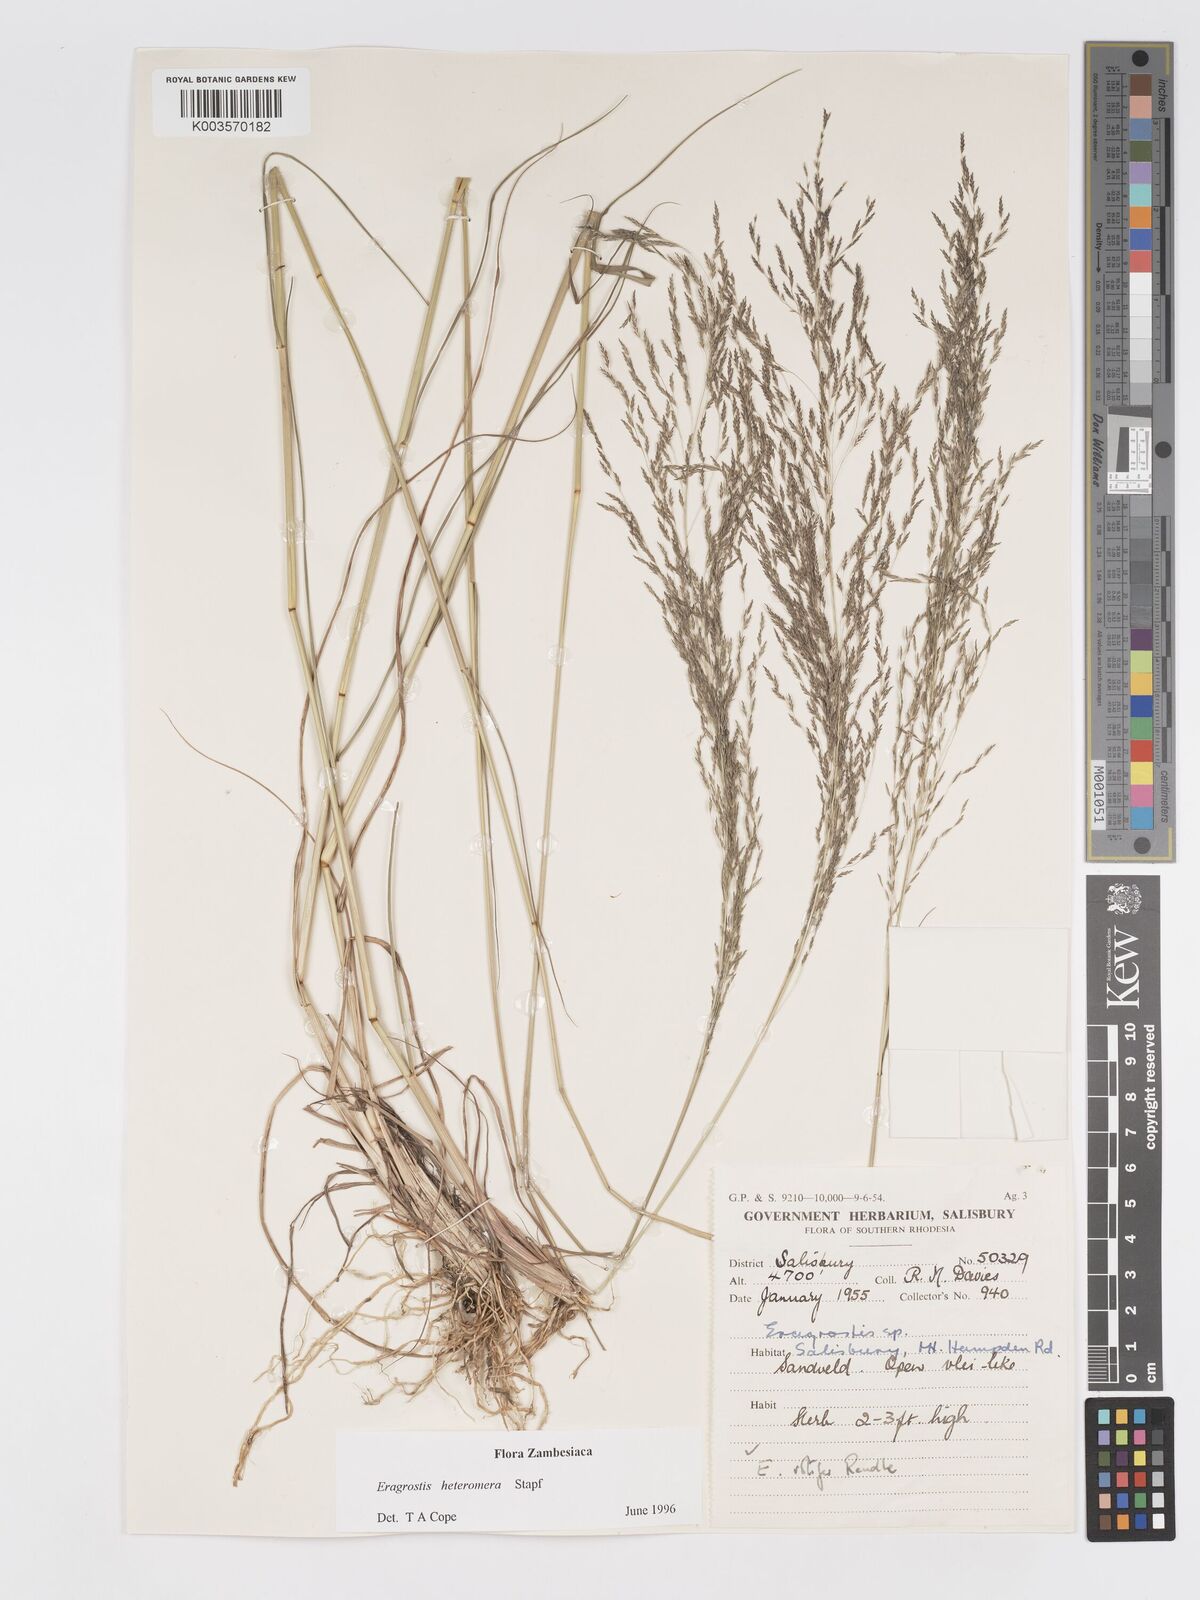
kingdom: Plantae
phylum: Tracheophyta
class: Liliopsida
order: Poales
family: Poaceae
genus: Eragrostis
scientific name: Eragrostis heteromera
